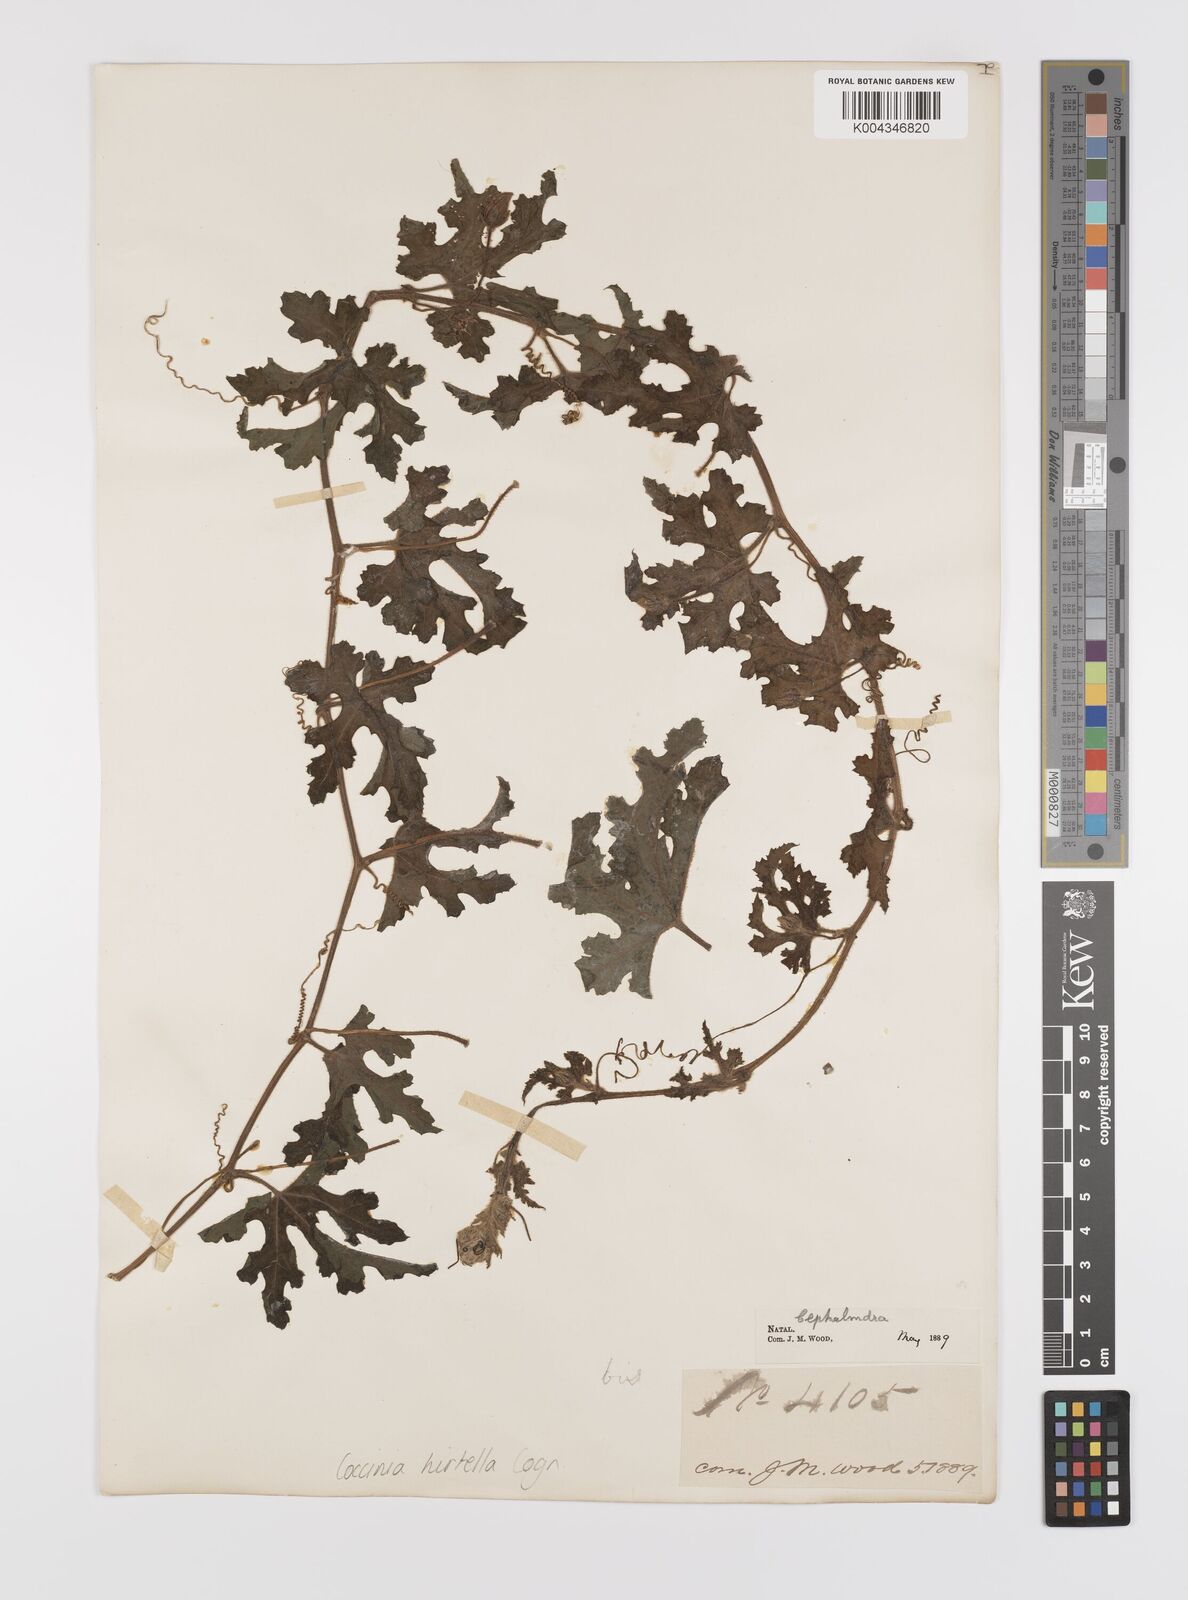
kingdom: Plantae
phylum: Tracheophyta
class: Magnoliopsida
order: Cucurbitales
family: Cucurbitaceae
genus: Coccinia
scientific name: Coccinia hirtella
